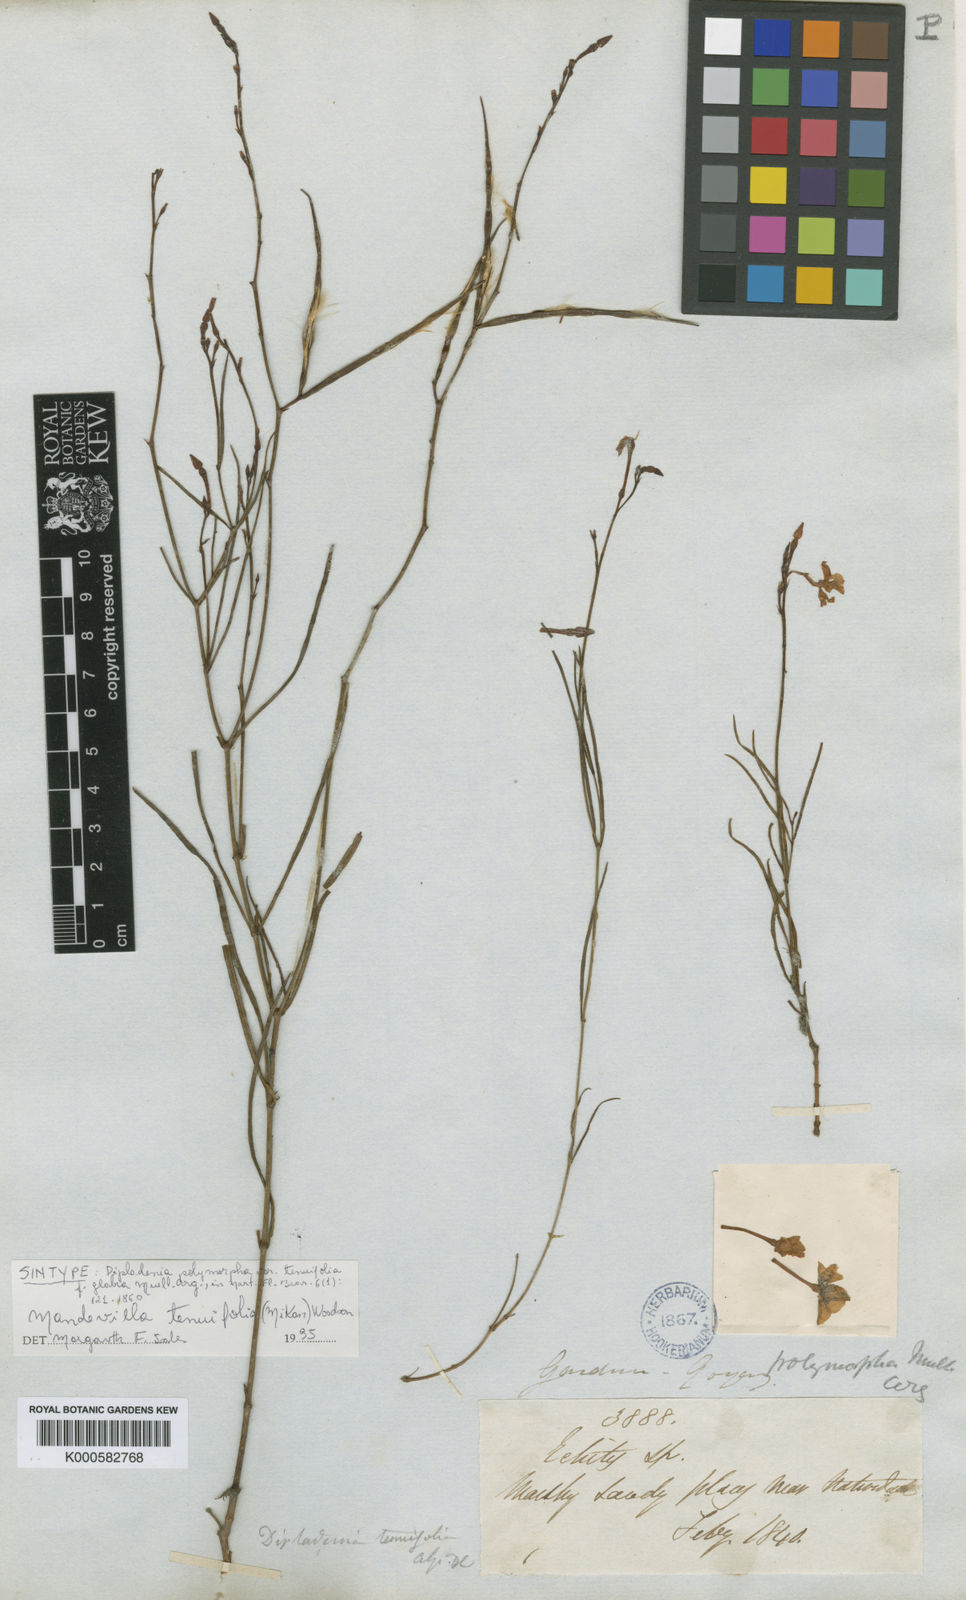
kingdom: Plantae
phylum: Tracheophyta
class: Magnoliopsida
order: Gentianales
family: Apocynaceae
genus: Mandevilla
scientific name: Mandevilla tenuifolia
